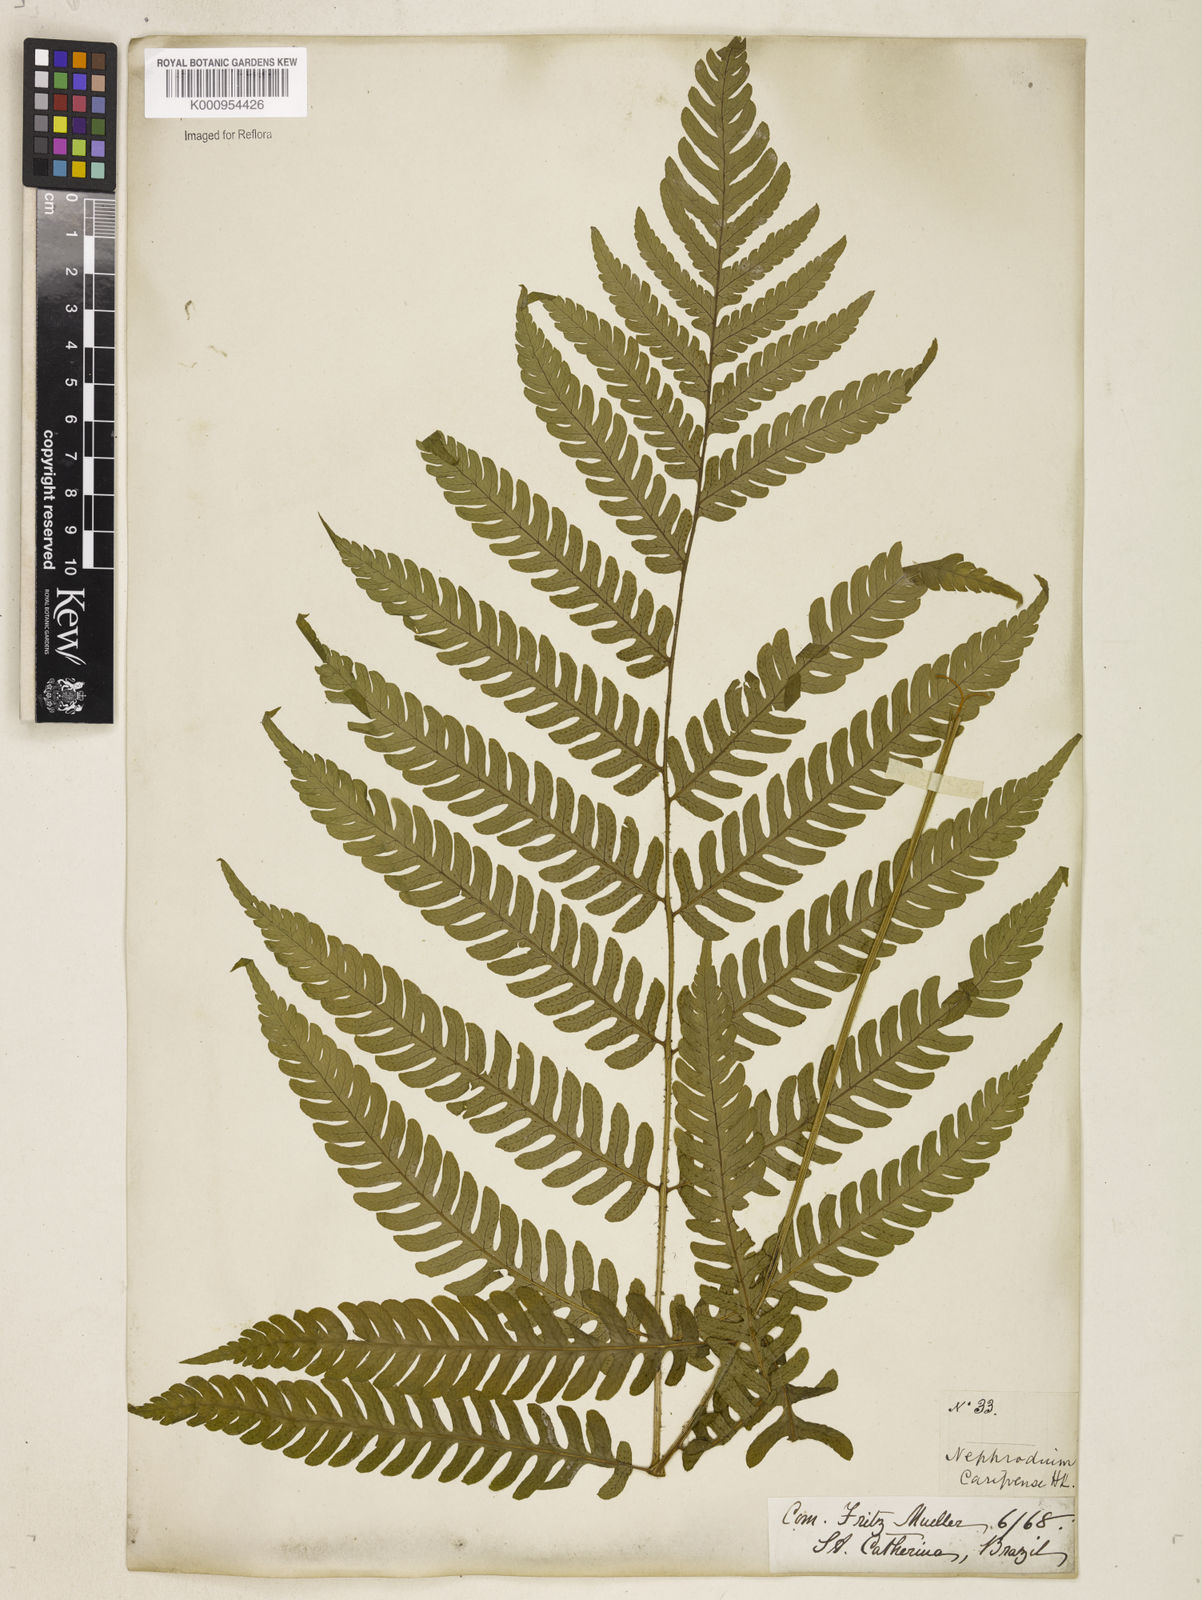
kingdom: Plantae
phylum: Tracheophyta
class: Polypodiopsida
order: Polypodiales
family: Dryopteridaceae
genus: Ctenitis
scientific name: Ctenitis falciculata
